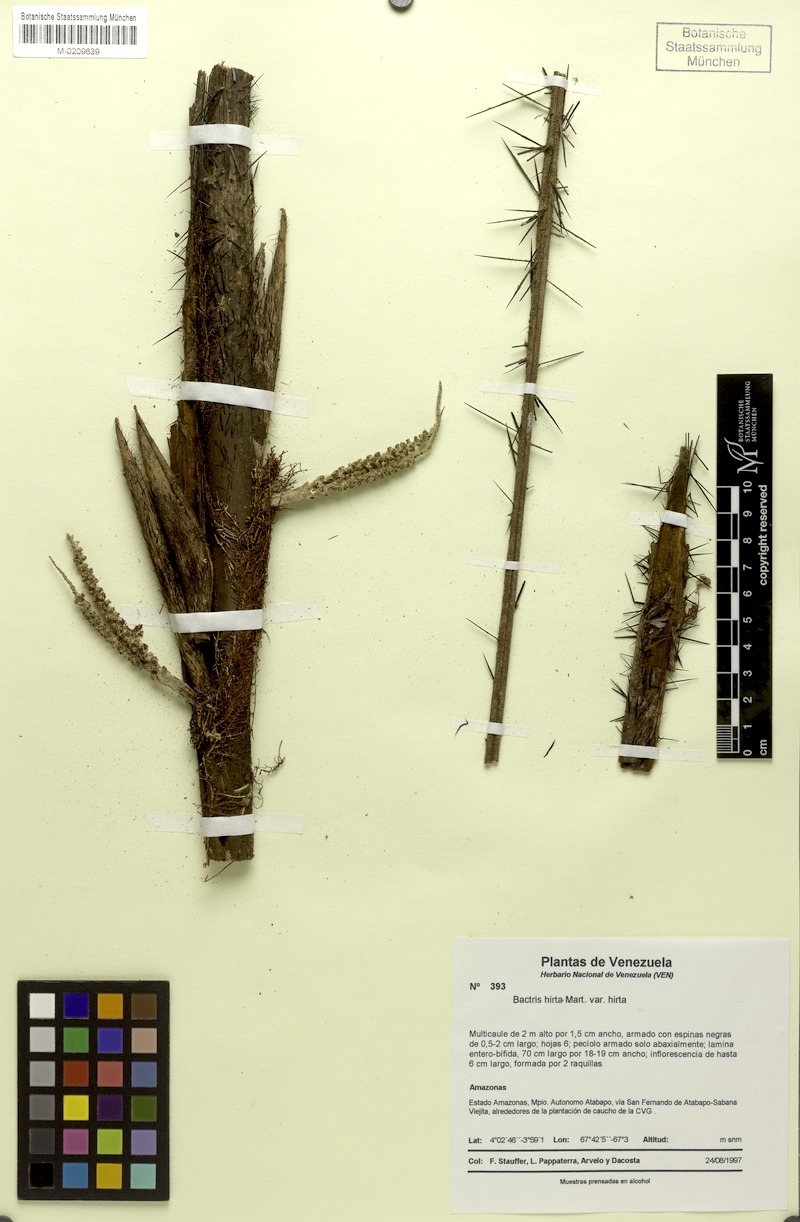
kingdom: Plantae
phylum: Tracheophyta
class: Liliopsida
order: Arecales
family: Arecaceae
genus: Bactris
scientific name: Bactris hirta
